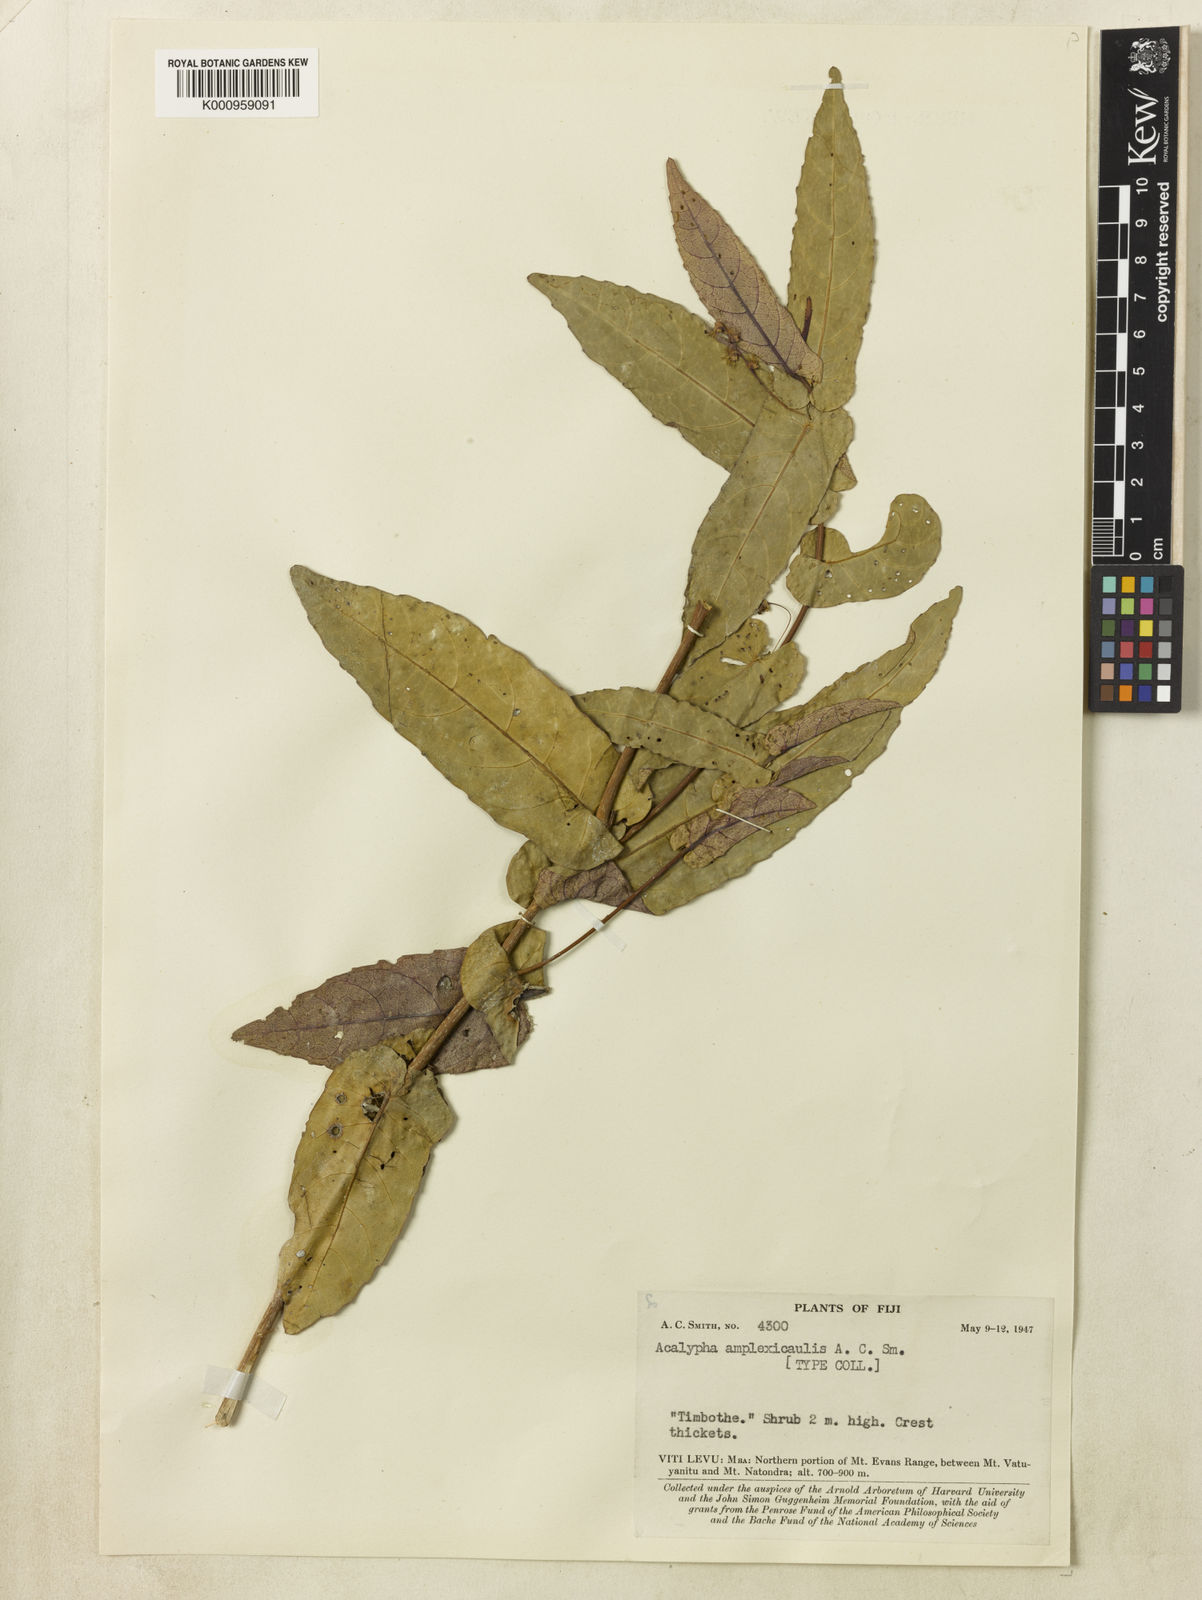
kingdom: Plantae
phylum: Tracheophyta
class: Magnoliopsida
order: Malpighiales
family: Euphorbiaceae
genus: Acalypha
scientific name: Acalypha amplexicaulis
